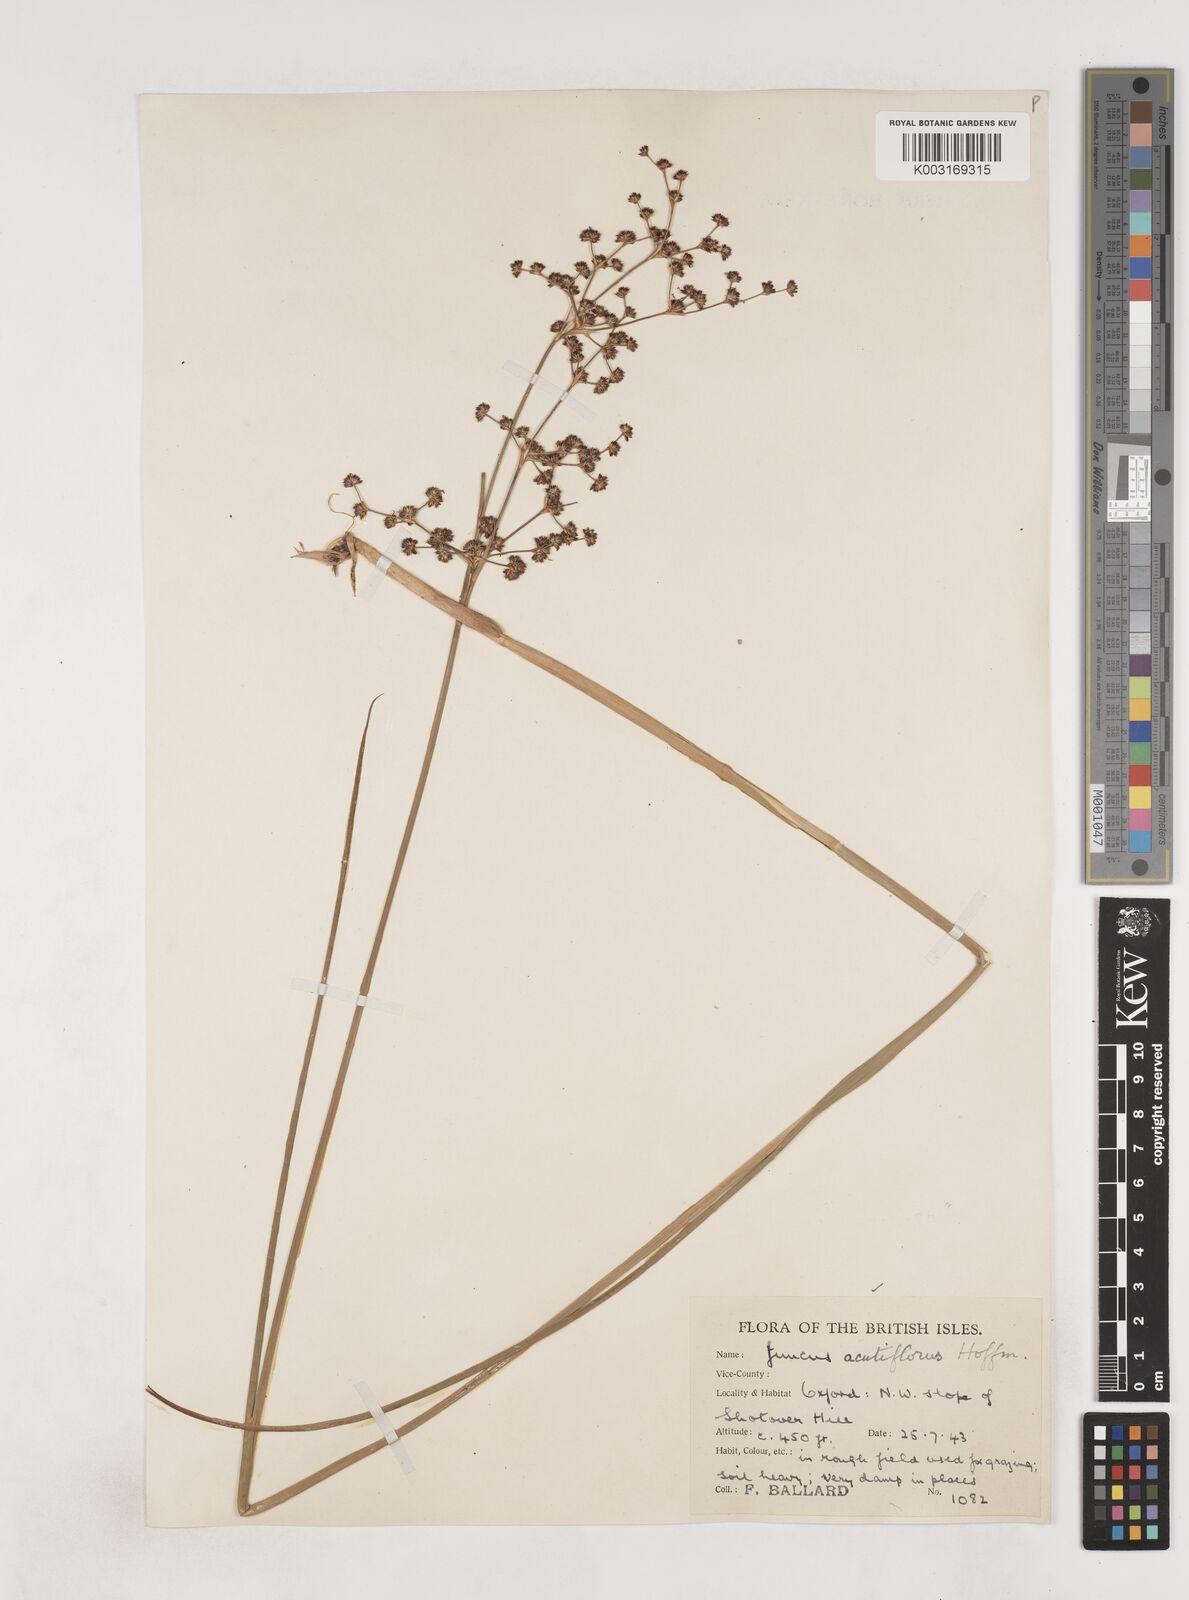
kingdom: Plantae
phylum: Tracheophyta
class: Liliopsida
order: Poales
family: Juncaceae
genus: Juncus
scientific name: Juncus acutiflorus
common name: Sharp-flowered rush
